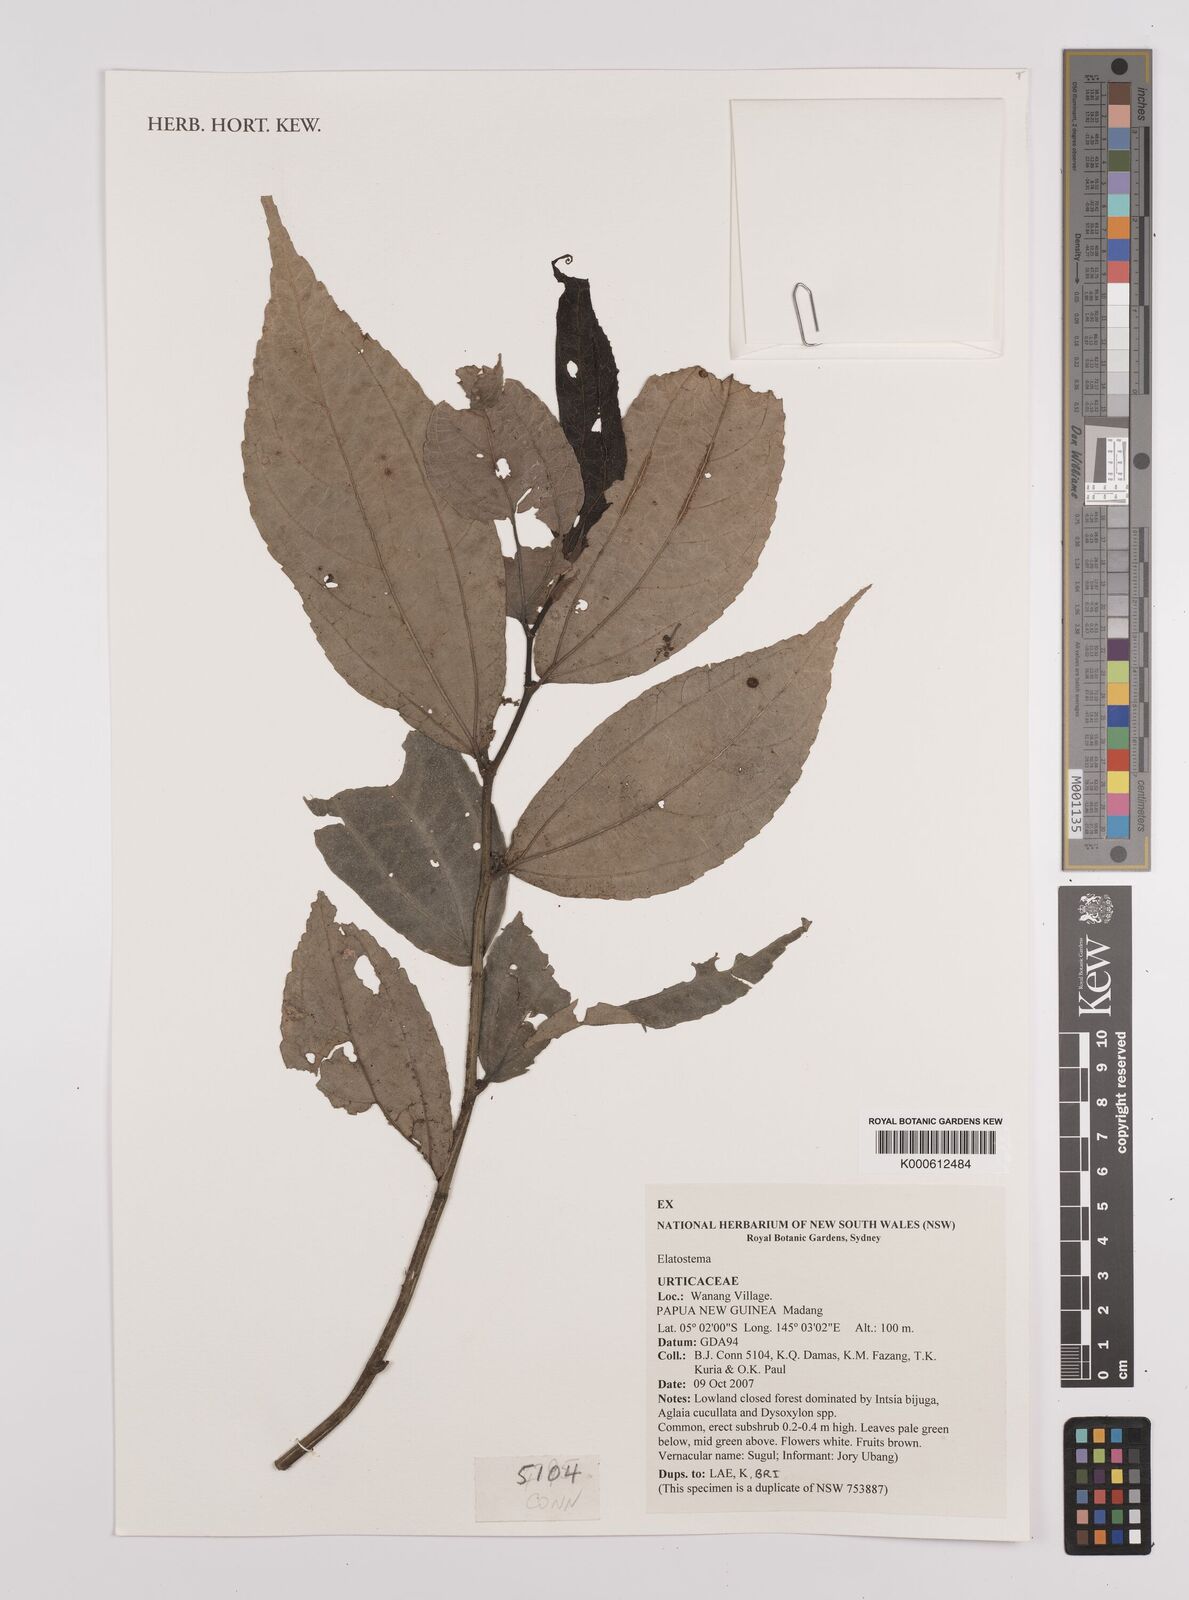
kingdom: Plantae
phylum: Tracheophyta
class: Magnoliopsida
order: Rosales
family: Urticaceae
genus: Elatostema
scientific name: Elatostema
